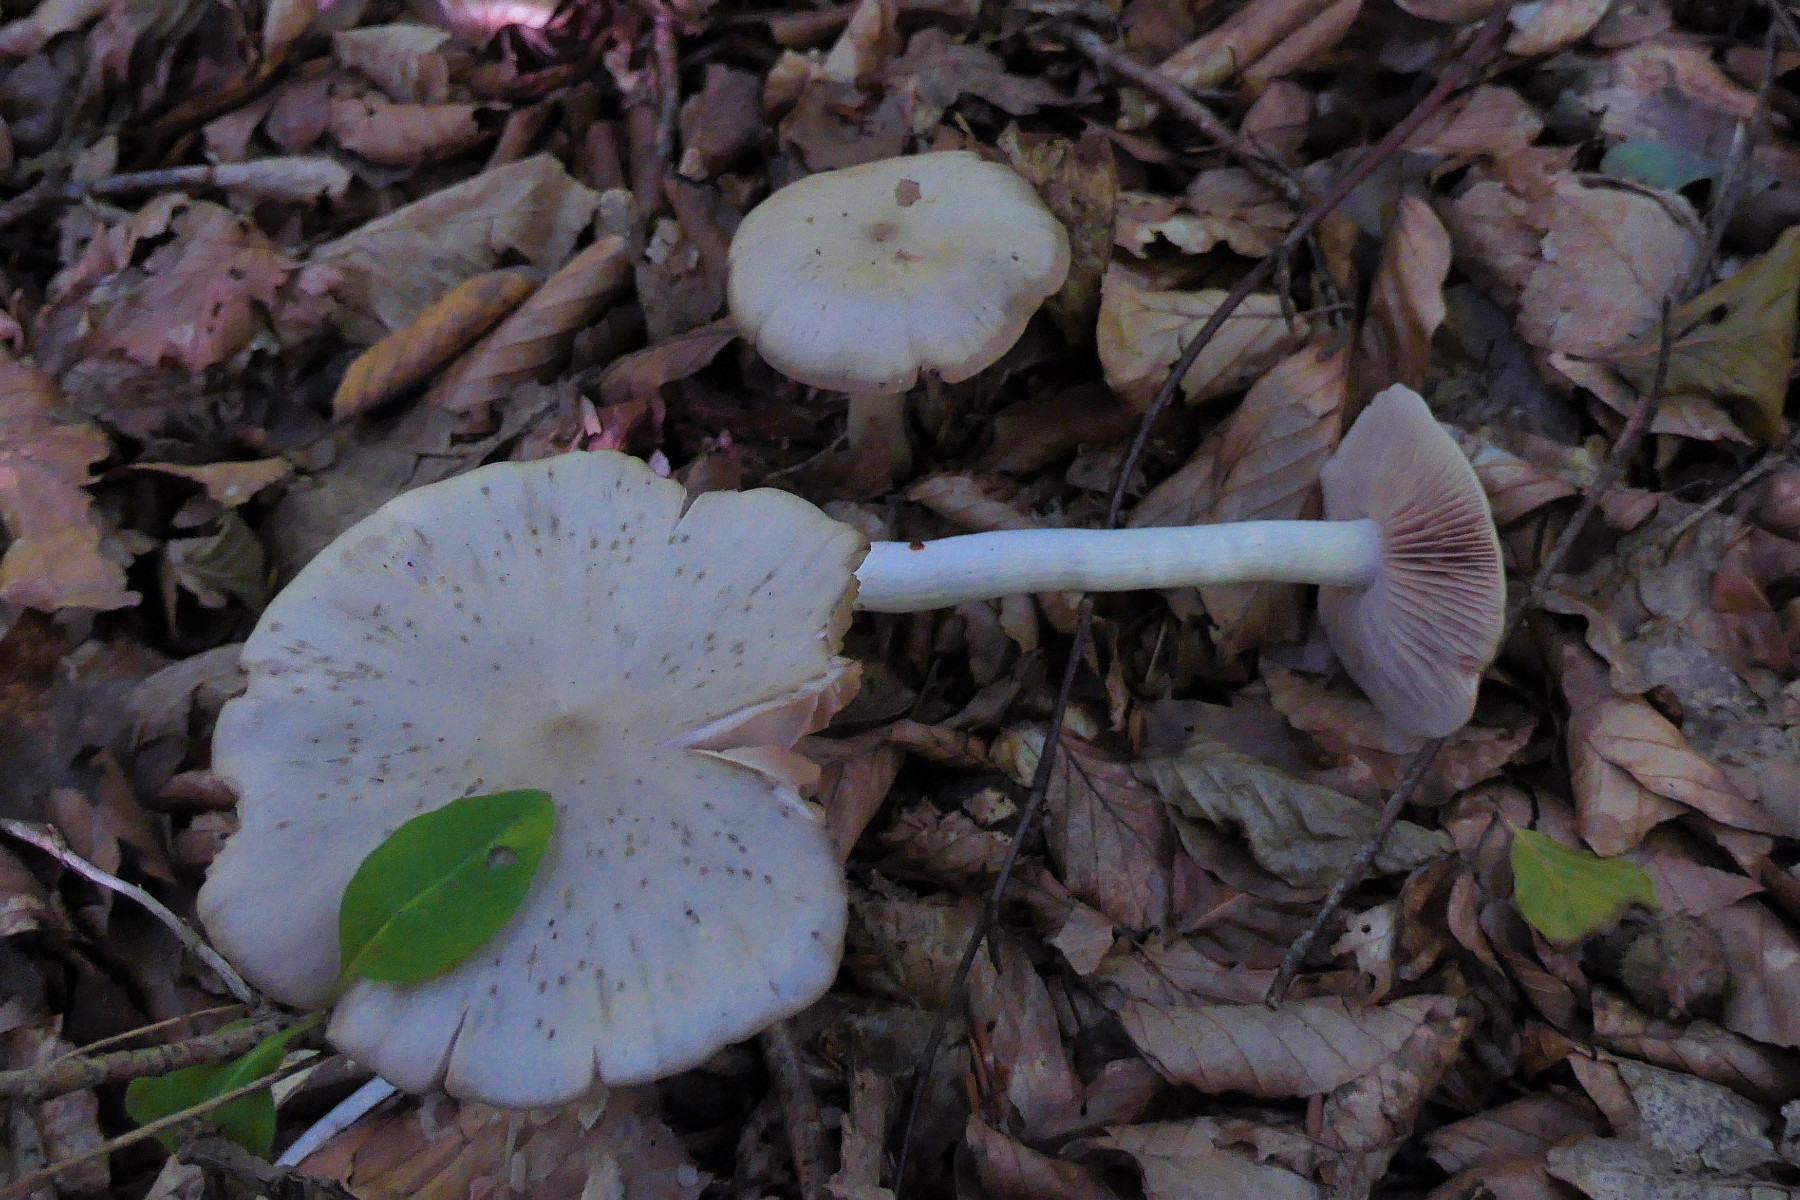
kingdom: Fungi
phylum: Basidiomycota
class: Agaricomycetes
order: Agaricales
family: Entolomataceae
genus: Entoloma
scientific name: Entoloma rhodopolium
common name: skov-rødblad
